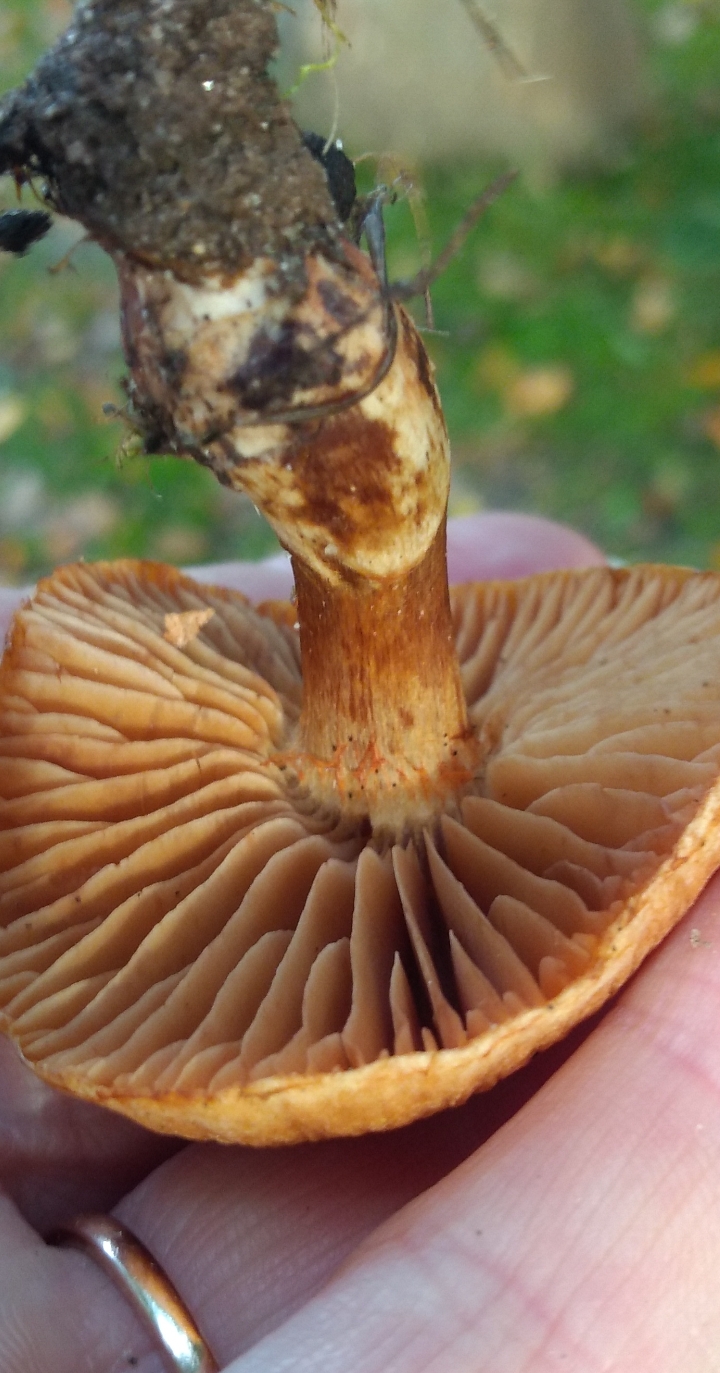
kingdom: Fungi
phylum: Basidiomycota
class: Agaricomycetes
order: Agaricales
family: Cortinariaceae
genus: Cortinarius
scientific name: Cortinarius
